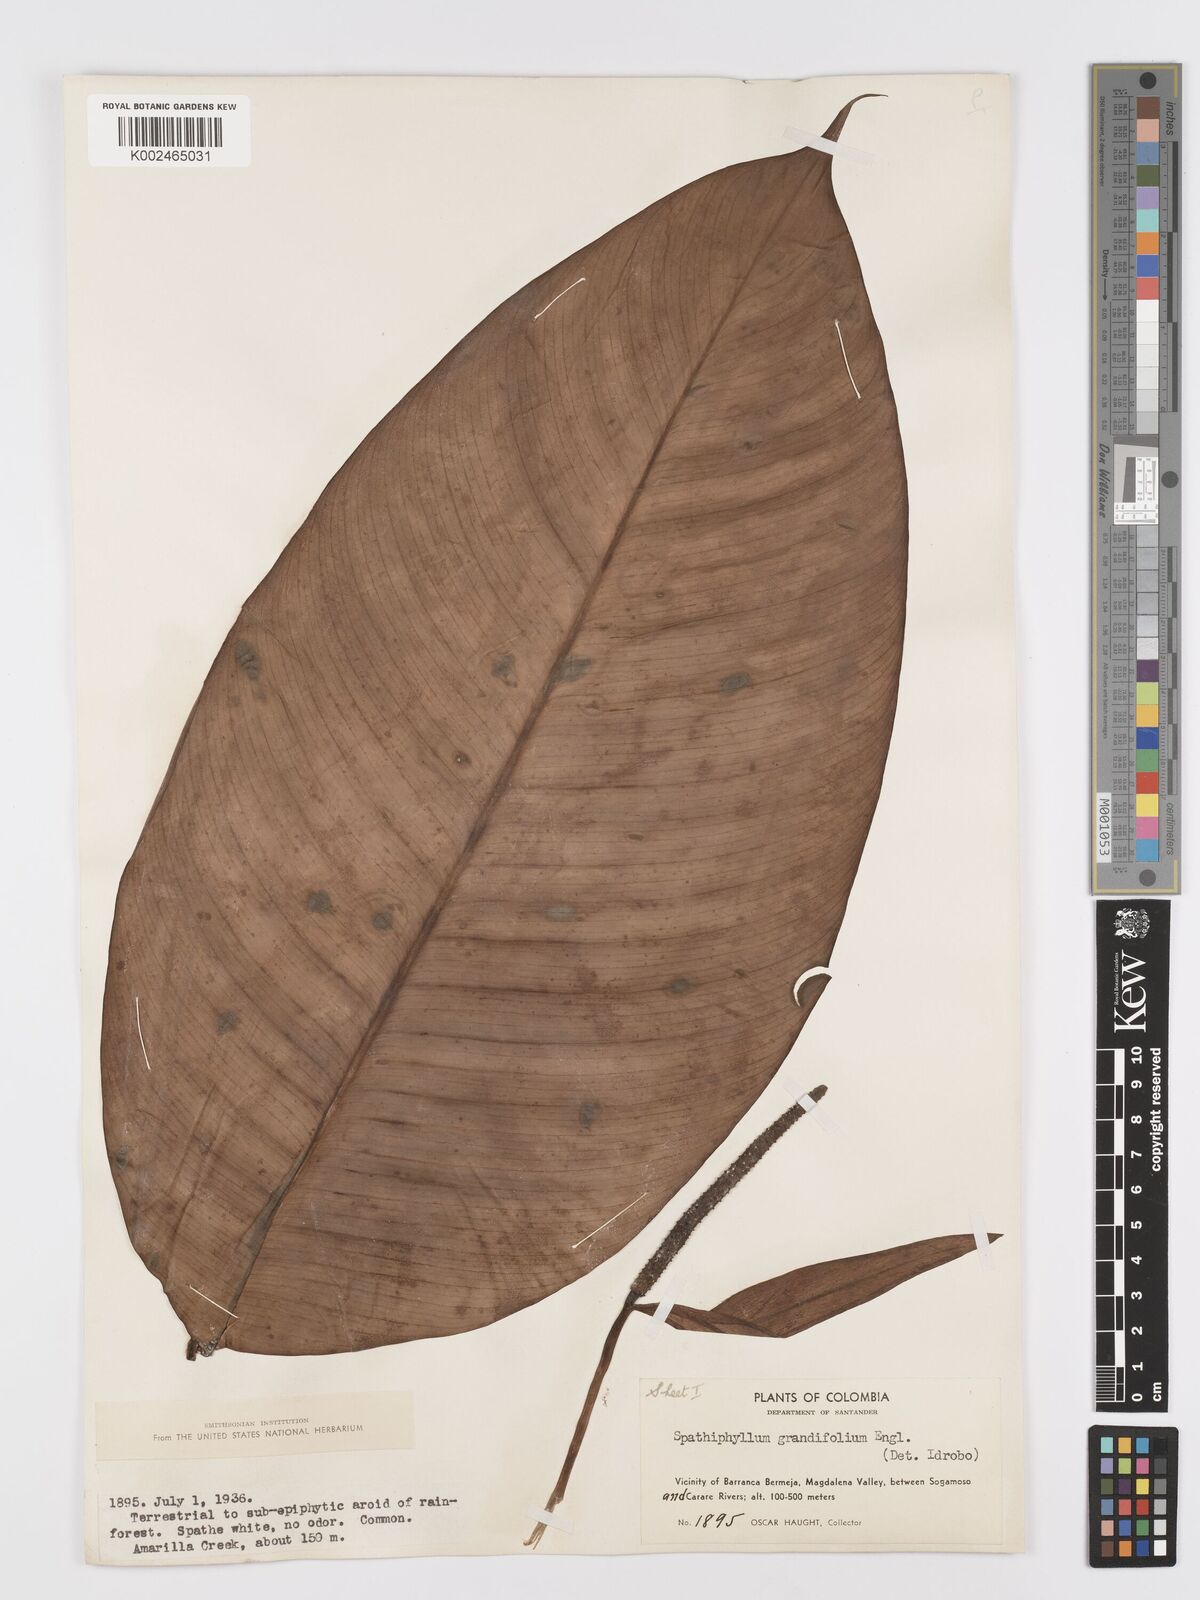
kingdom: Plantae
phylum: Tracheophyta
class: Liliopsida
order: Alismatales
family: Araceae
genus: Spathiphyllum
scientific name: Spathiphyllum grandifolium
